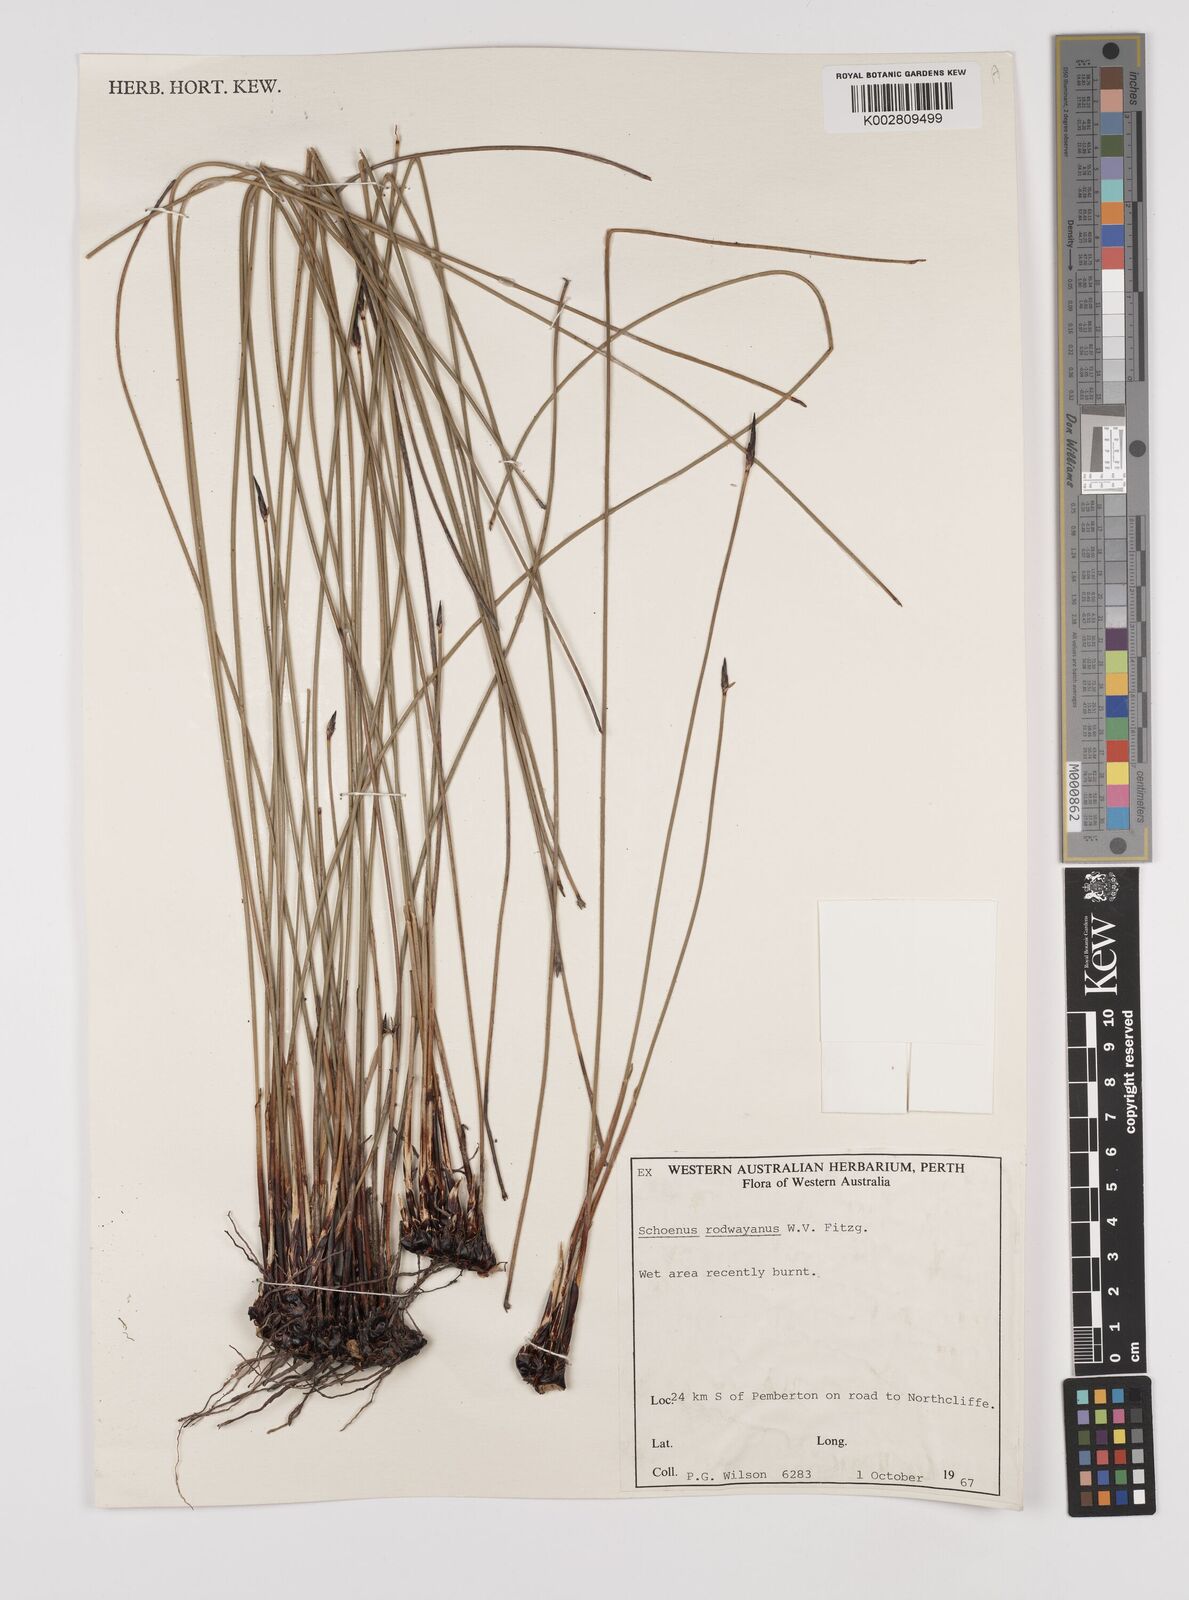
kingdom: Plantae
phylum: Tracheophyta
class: Liliopsida
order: Poales
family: Cyperaceae
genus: Schoenus
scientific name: Schoenus rodwayanus
